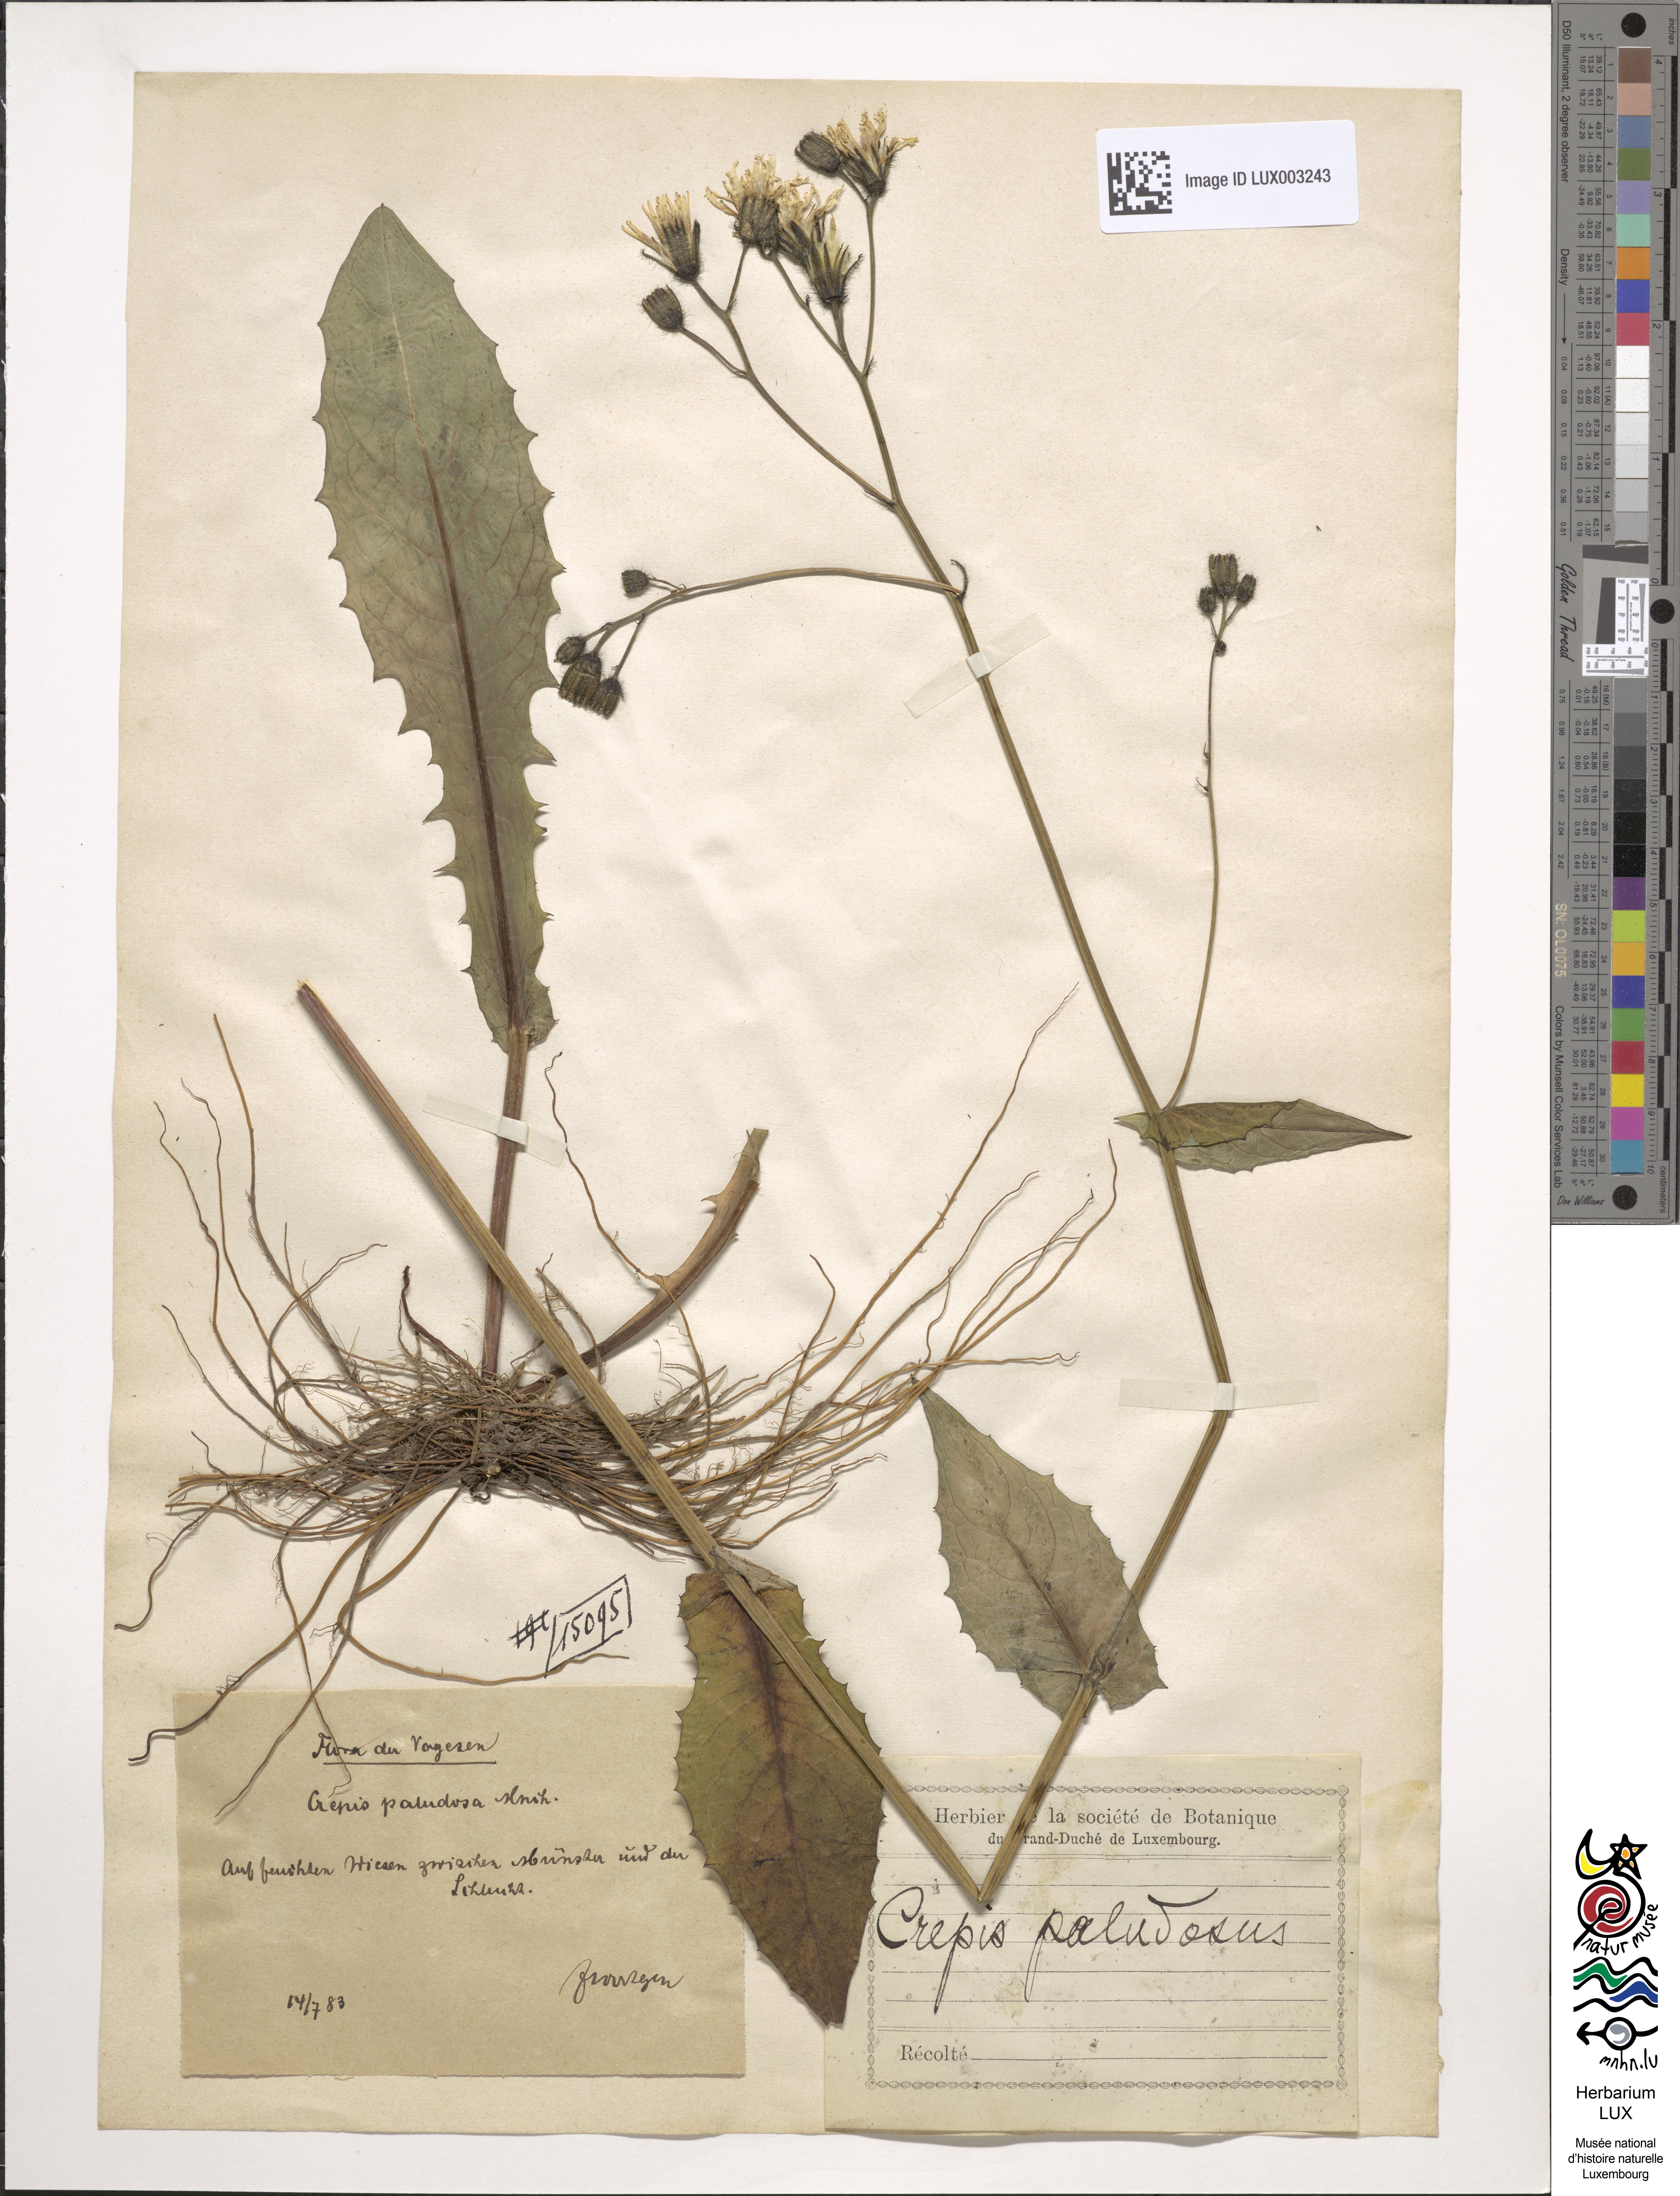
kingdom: Plantae
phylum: Tracheophyta
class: Magnoliopsida
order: Asterales
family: Asteraceae
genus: Crepis
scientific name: Crepis paludosa
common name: Marsh hawk's-beard
